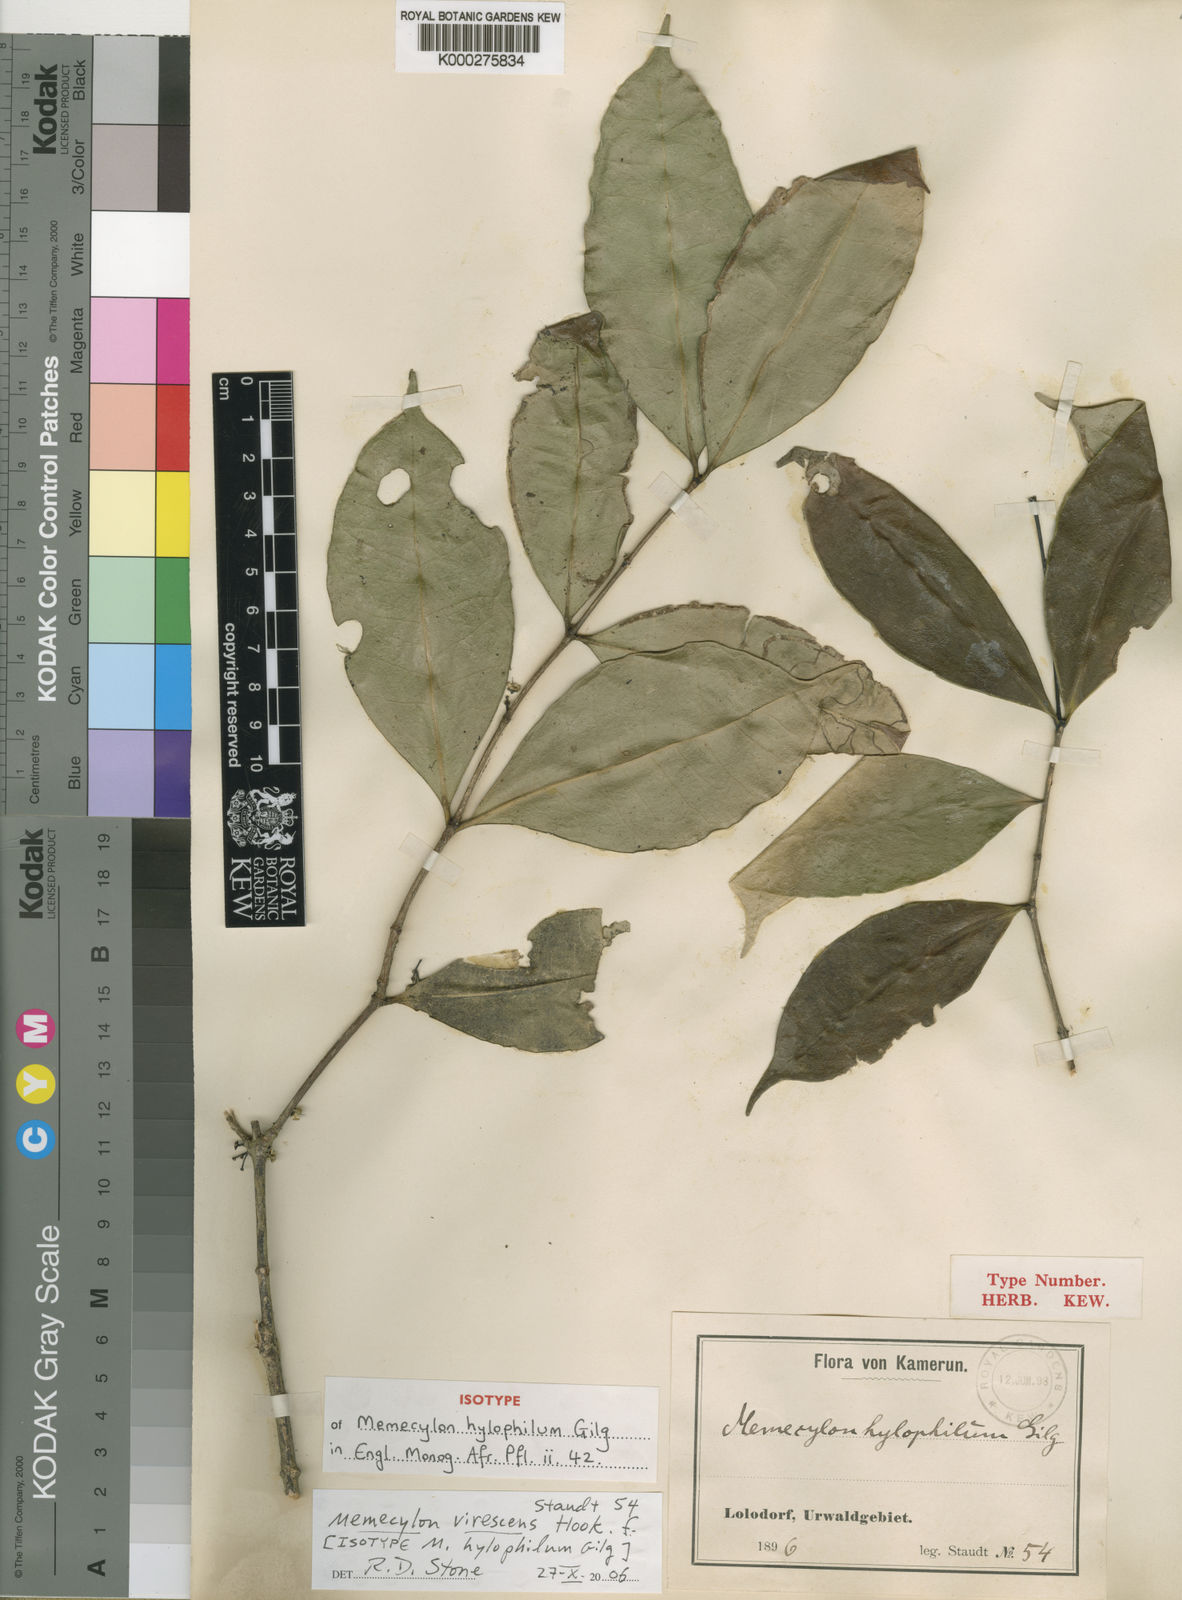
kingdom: Plantae
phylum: Tracheophyta
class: Magnoliopsida
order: Myrtales
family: Melastomataceae
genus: Memecylon
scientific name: Memecylon virescens
